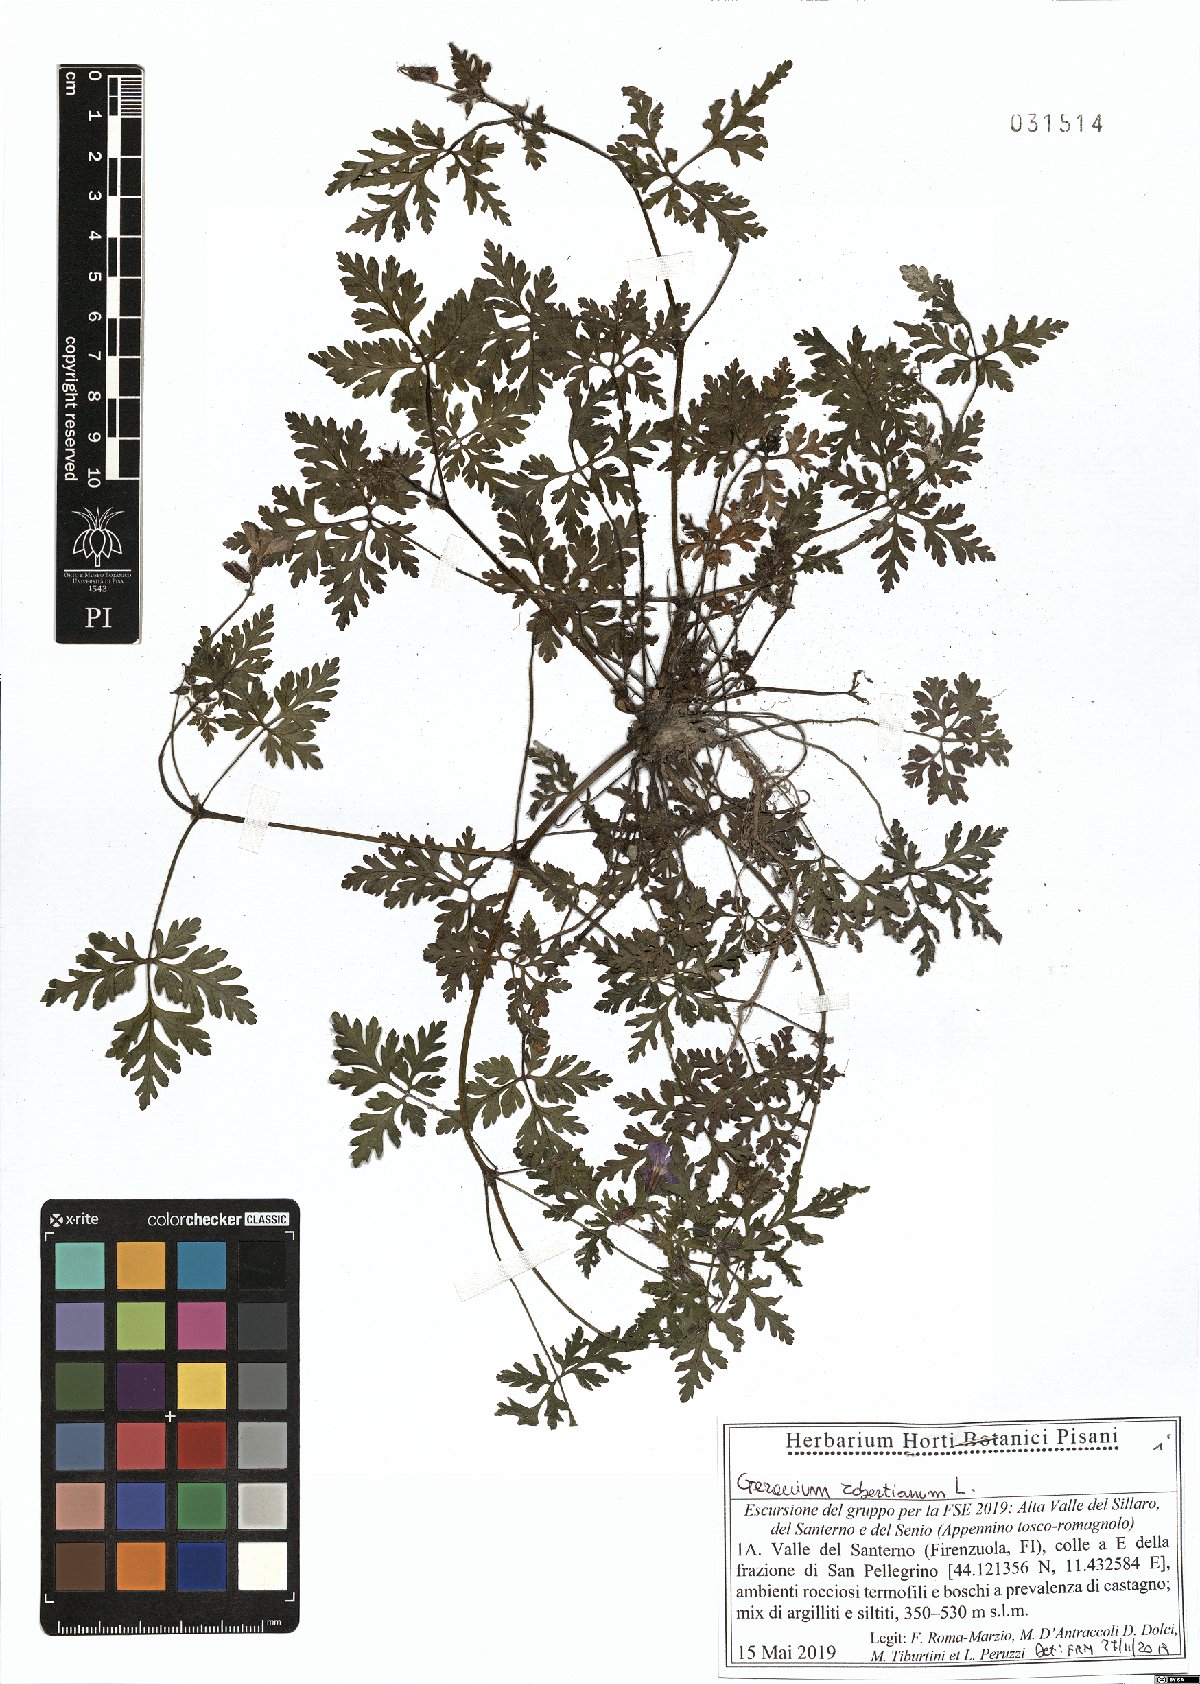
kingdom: Plantae
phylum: Tracheophyta
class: Magnoliopsida
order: Geraniales
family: Geraniaceae
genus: Geranium
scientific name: Geranium robertianum
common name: Herb-robert
